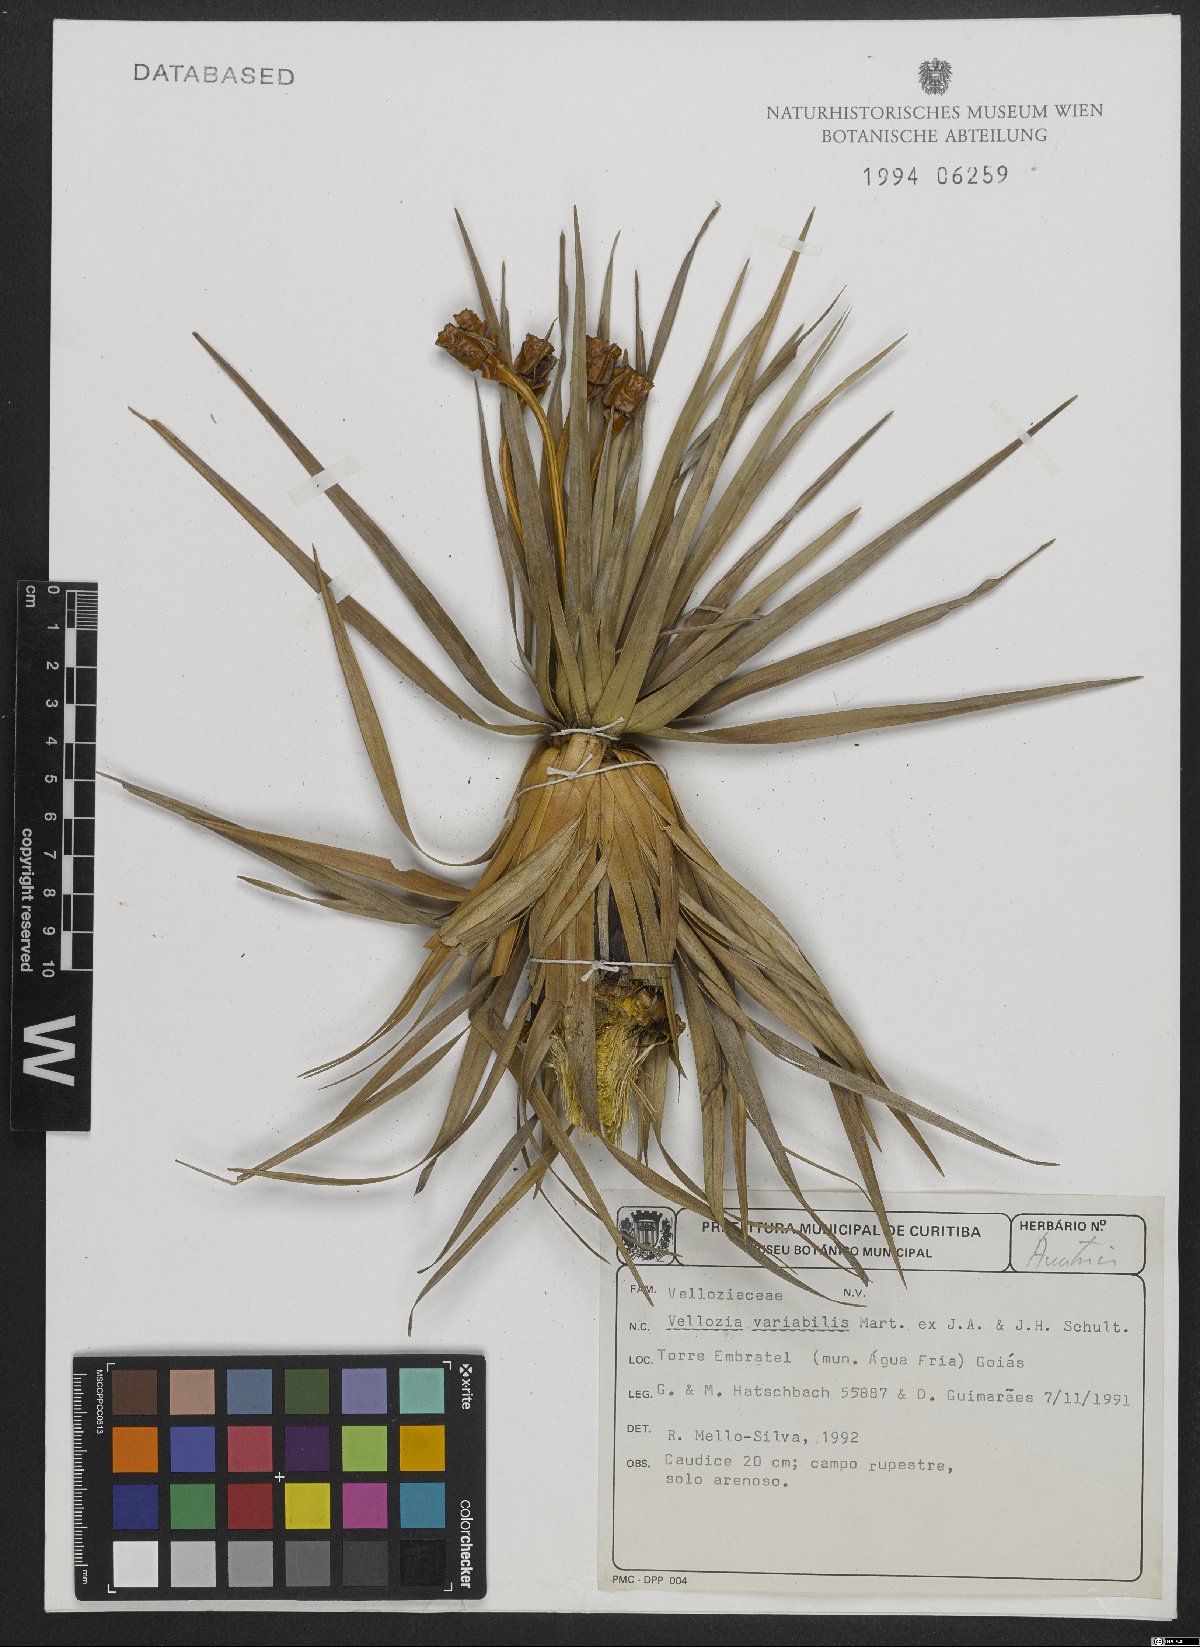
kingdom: Plantae
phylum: Tracheophyta
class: Liliopsida
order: Pandanales
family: Velloziaceae
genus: Vellozia
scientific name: Vellozia variabilis
